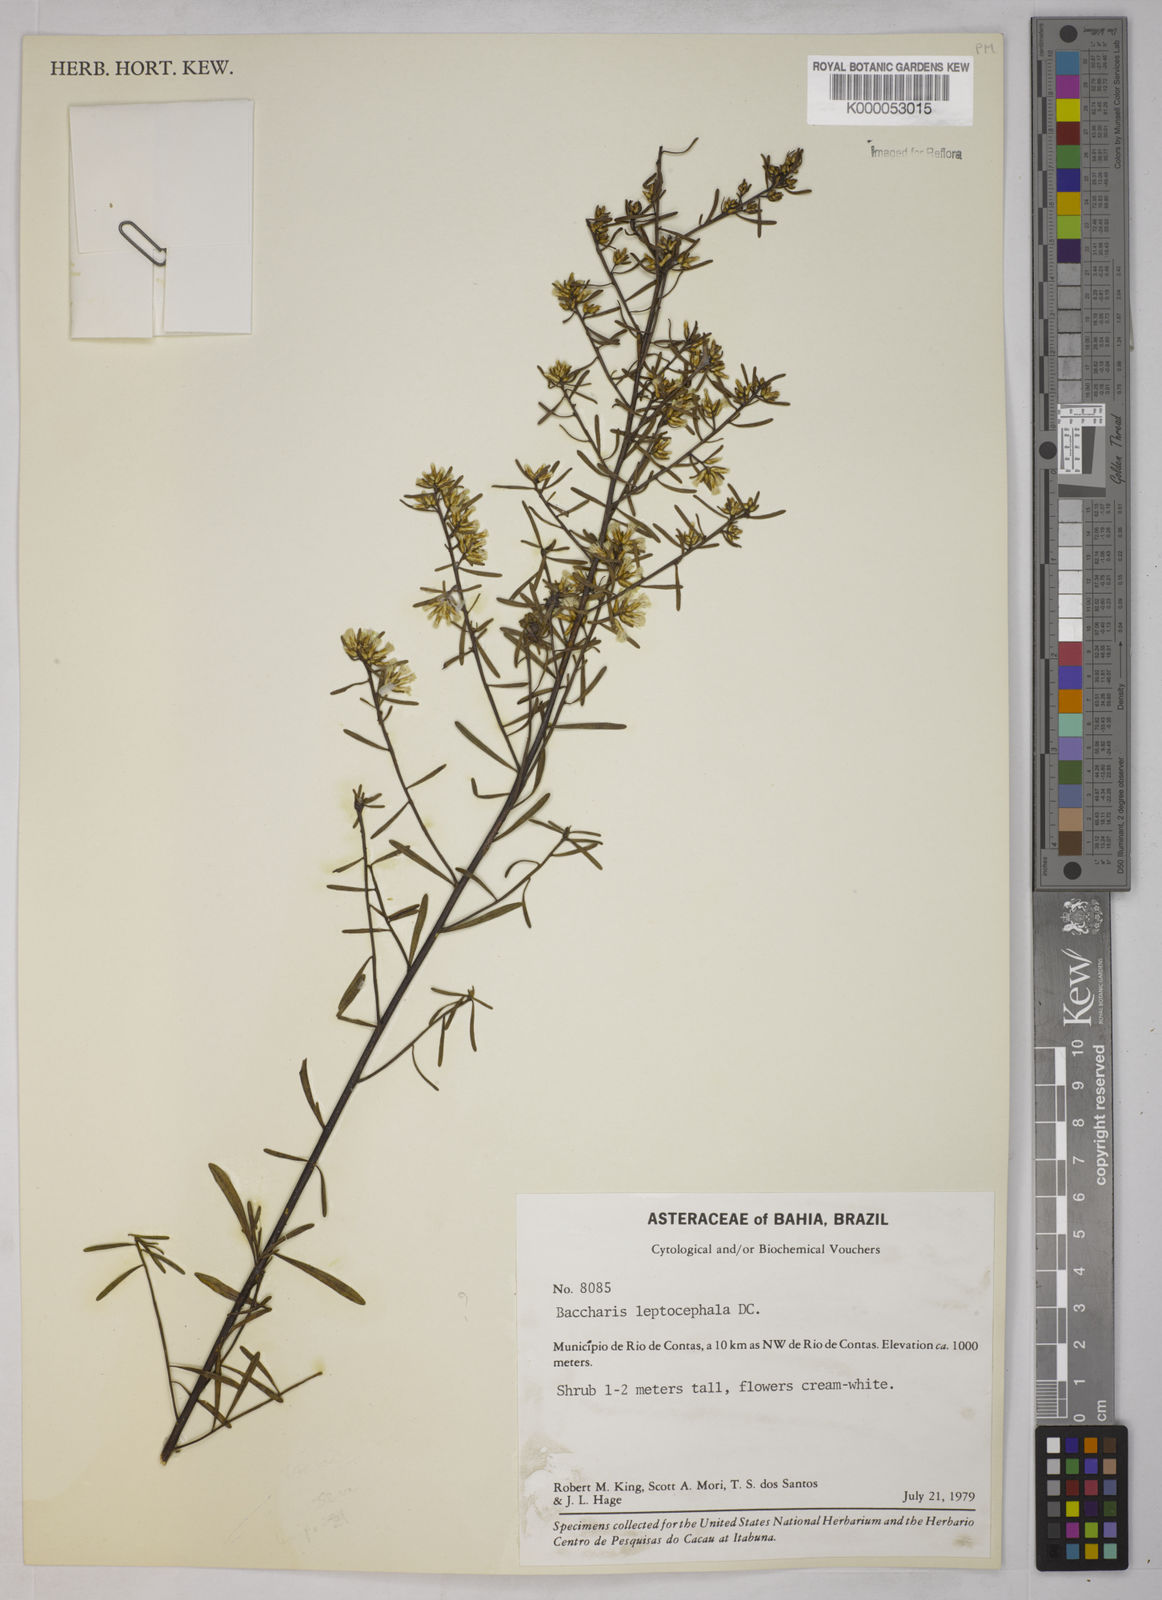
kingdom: Plantae
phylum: Tracheophyta
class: Magnoliopsida
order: Asterales
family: Asteraceae
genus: Baccharis
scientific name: Baccharis leptocephala
